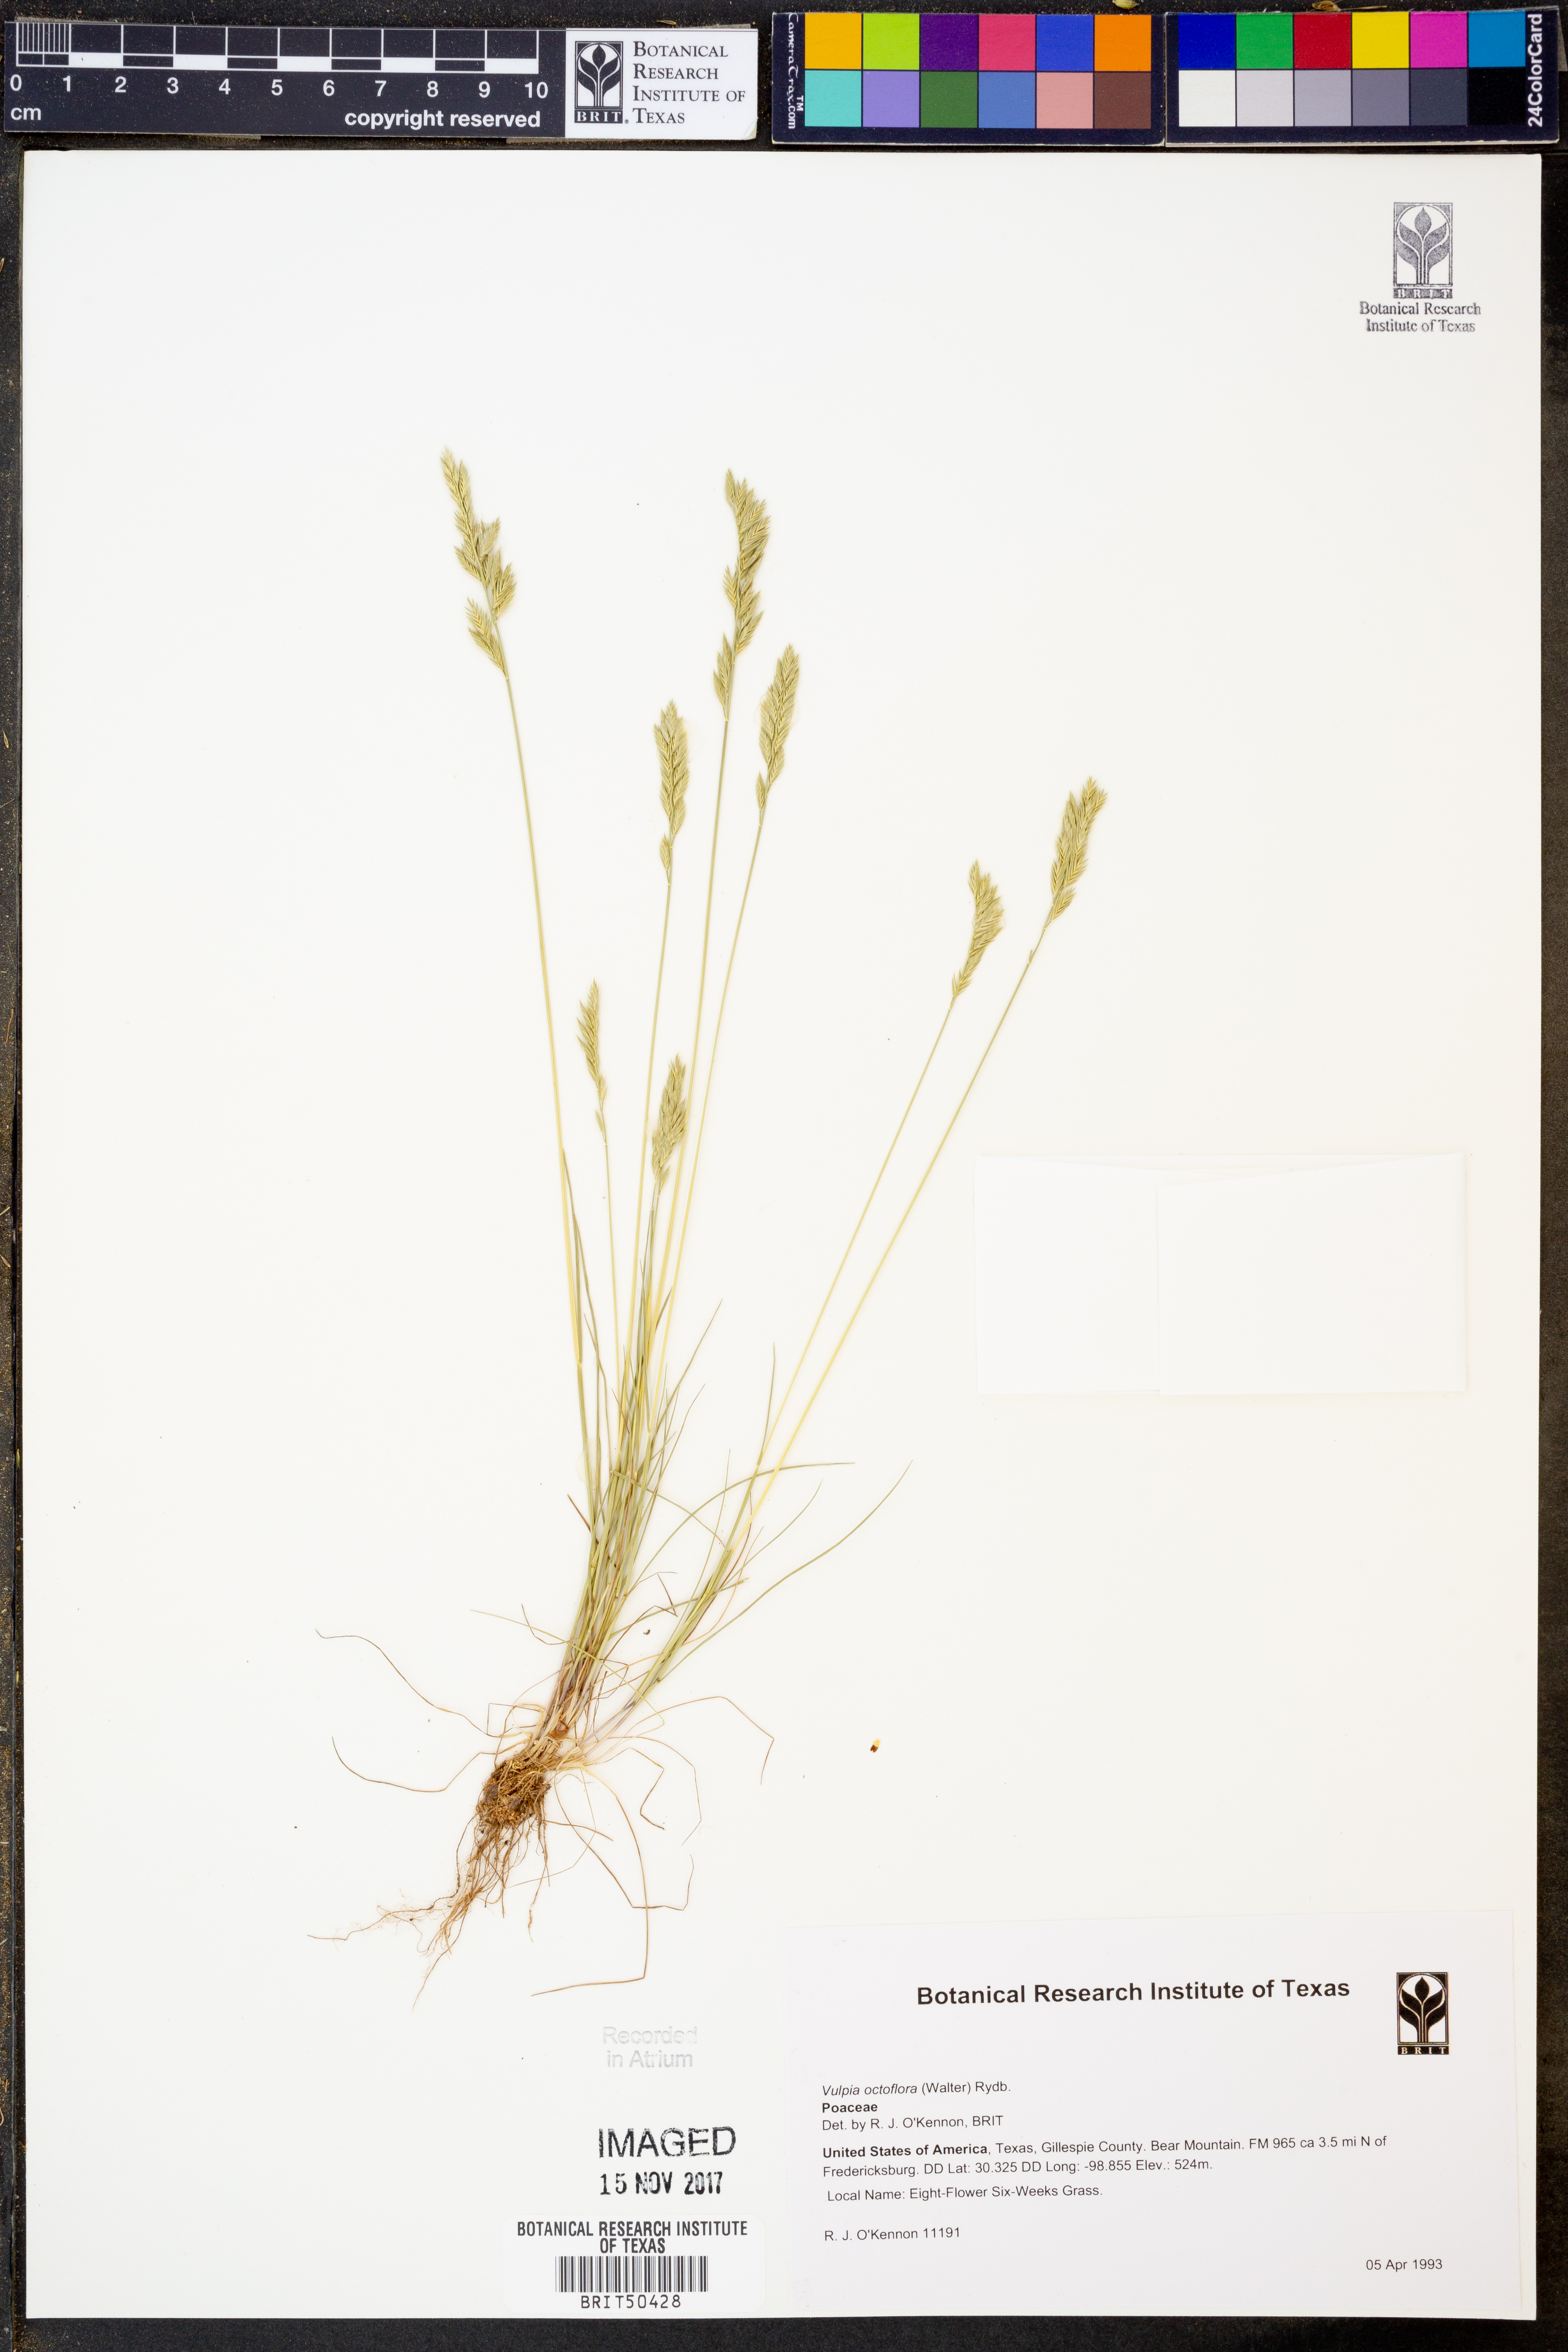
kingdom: Plantae
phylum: Tracheophyta
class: Liliopsida
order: Poales
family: Poaceae
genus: Festuca
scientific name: Festuca octoflora
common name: Sixweeks grass
